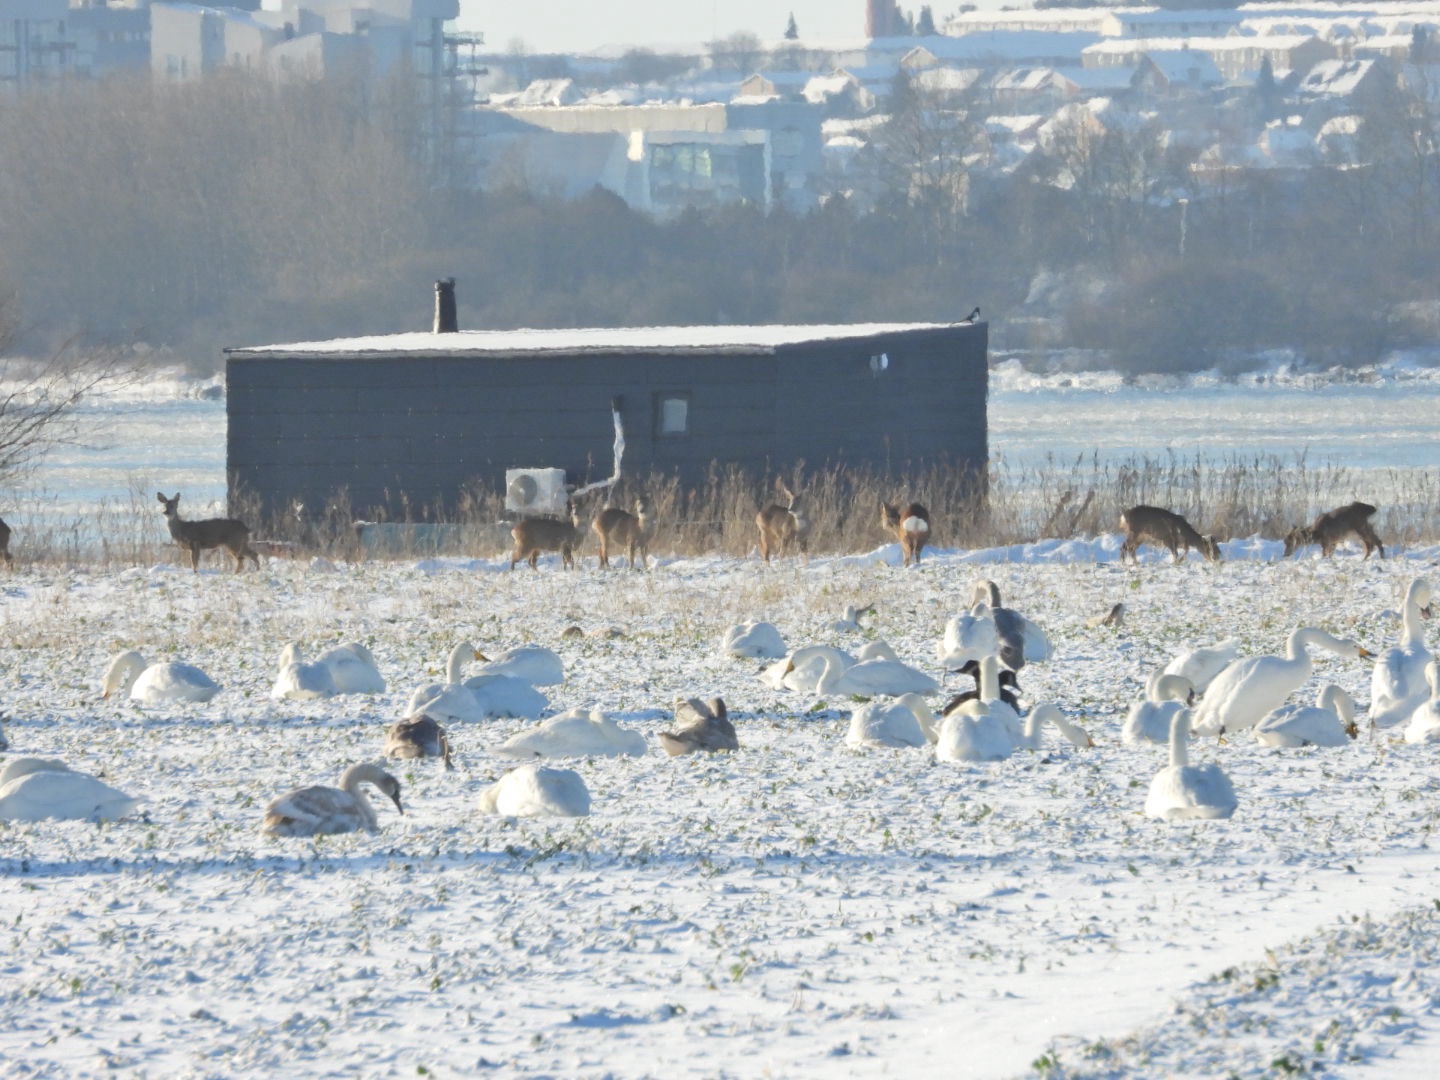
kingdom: Animalia
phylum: Chordata
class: Mammalia
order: Artiodactyla
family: Cervidae
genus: Capreolus
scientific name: Capreolus capreolus
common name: Rådyr
